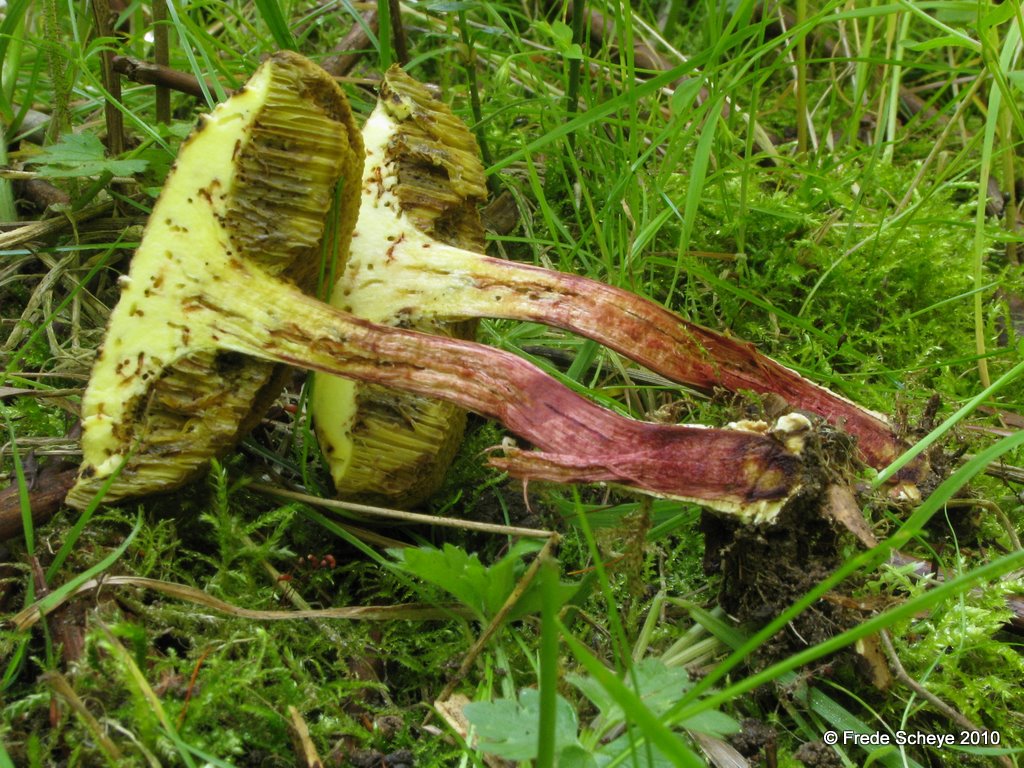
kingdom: Fungi
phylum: Basidiomycota
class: Agaricomycetes
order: Boletales
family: Boletaceae
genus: Xerocomellus
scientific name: Xerocomellus porosporus
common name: hvidsprukken rørhat
